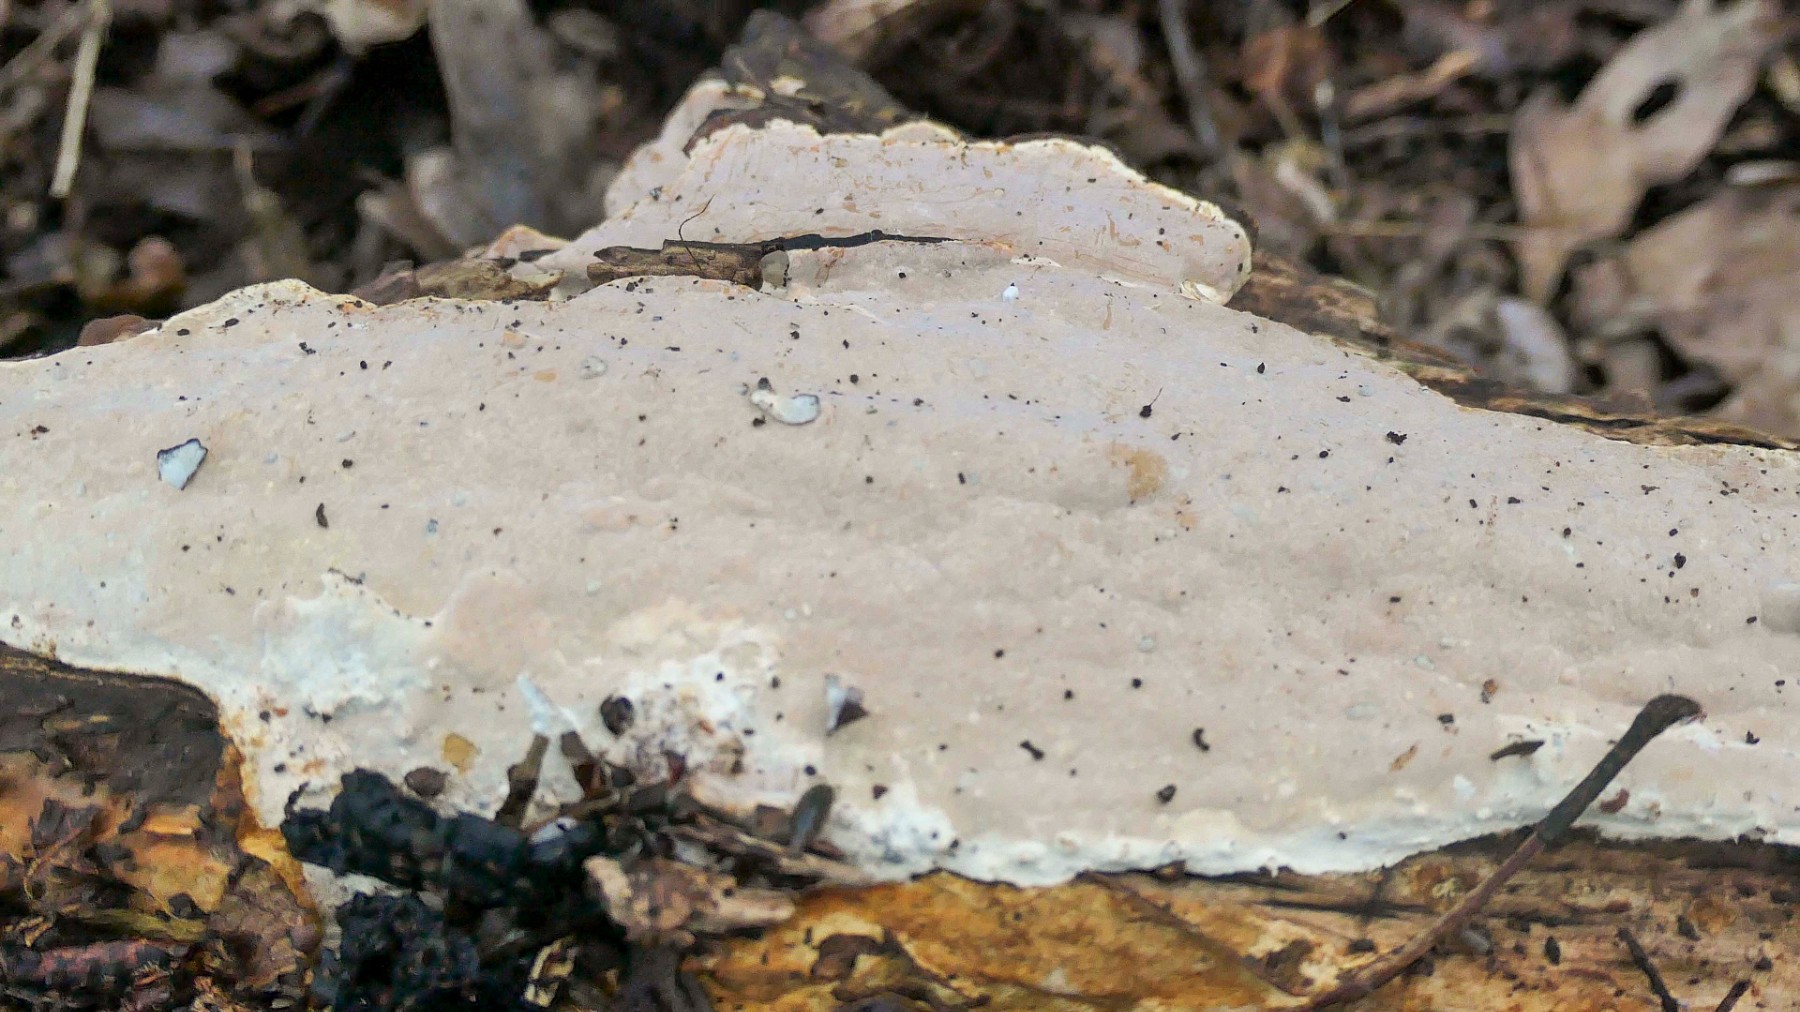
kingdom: Fungi
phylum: Basidiomycota
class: Agaricomycetes
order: Russulales
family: Peniophoraceae
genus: Scytinostroma
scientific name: Scytinostroma hemidichophyticum
